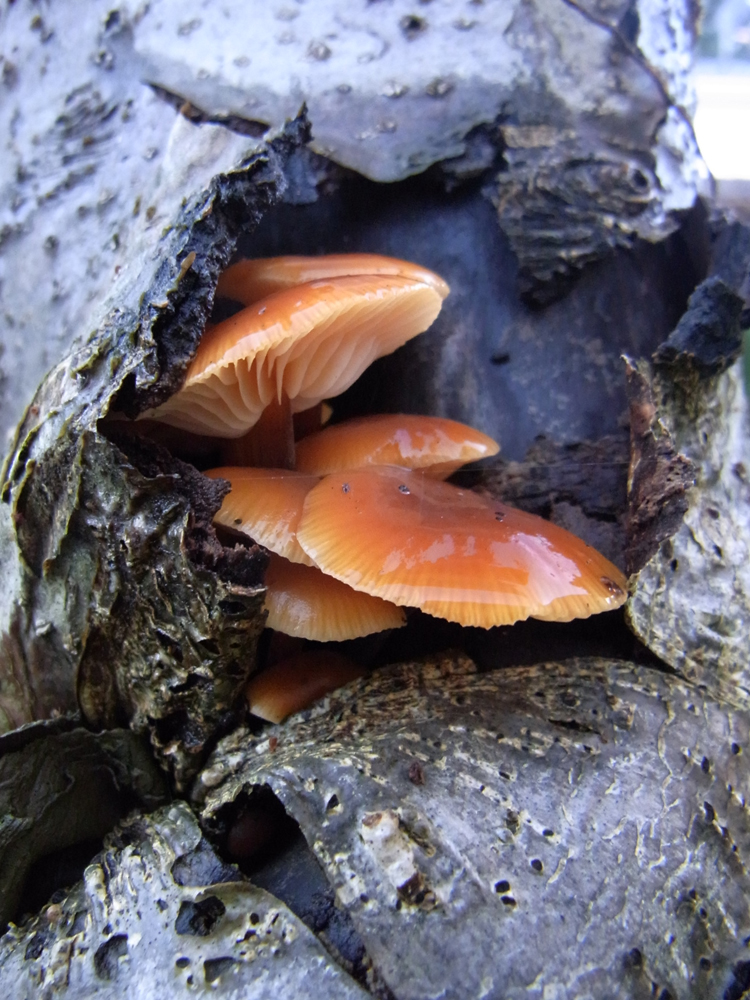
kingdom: Fungi
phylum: Basidiomycota
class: Agaricomycetes
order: Agaricales
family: Physalacriaceae
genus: Flammulina
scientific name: Flammulina velutipes
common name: Velvet shank
